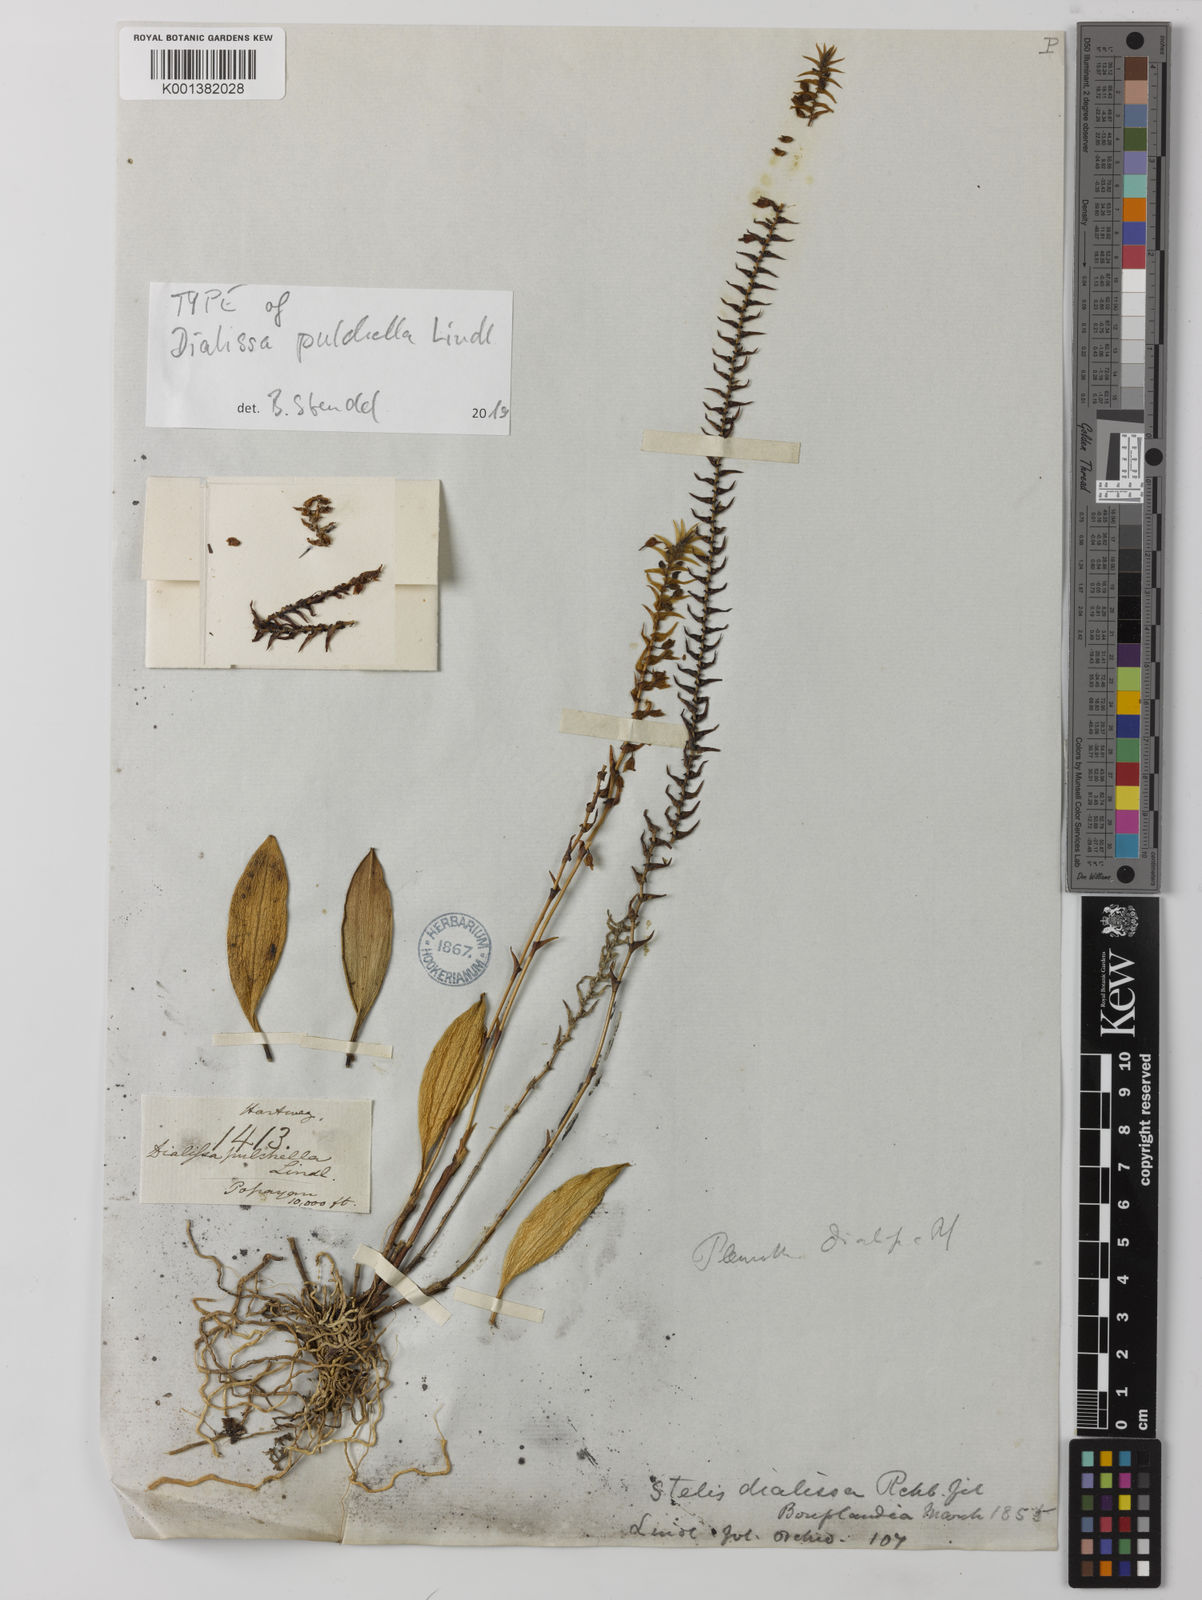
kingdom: Plantae
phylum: Tracheophyta
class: Liliopsida
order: Asparagales
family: Orchidaceae
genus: Stelis
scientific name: Stelis dialissa
